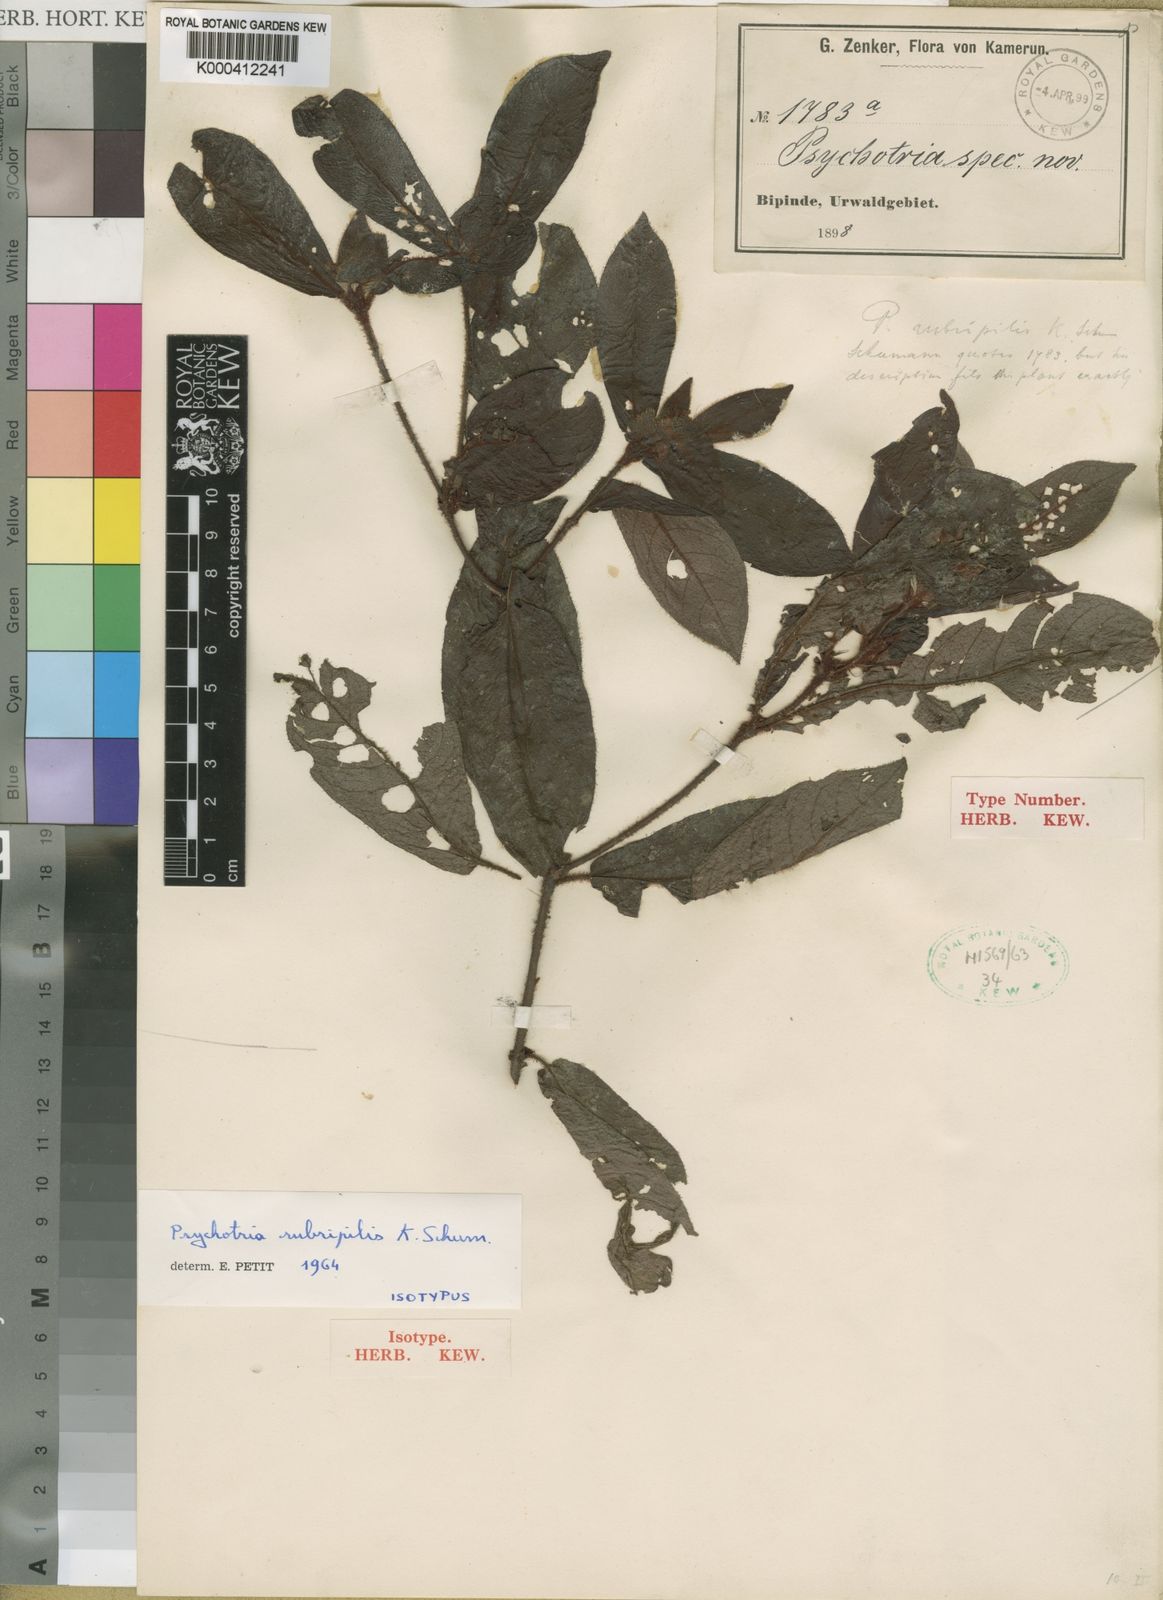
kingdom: Plantae
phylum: Tracheophyta
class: Magnoliopsida
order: Gentianales
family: Rubiaceae
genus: Psychotria
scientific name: Psychotria rubripilis
